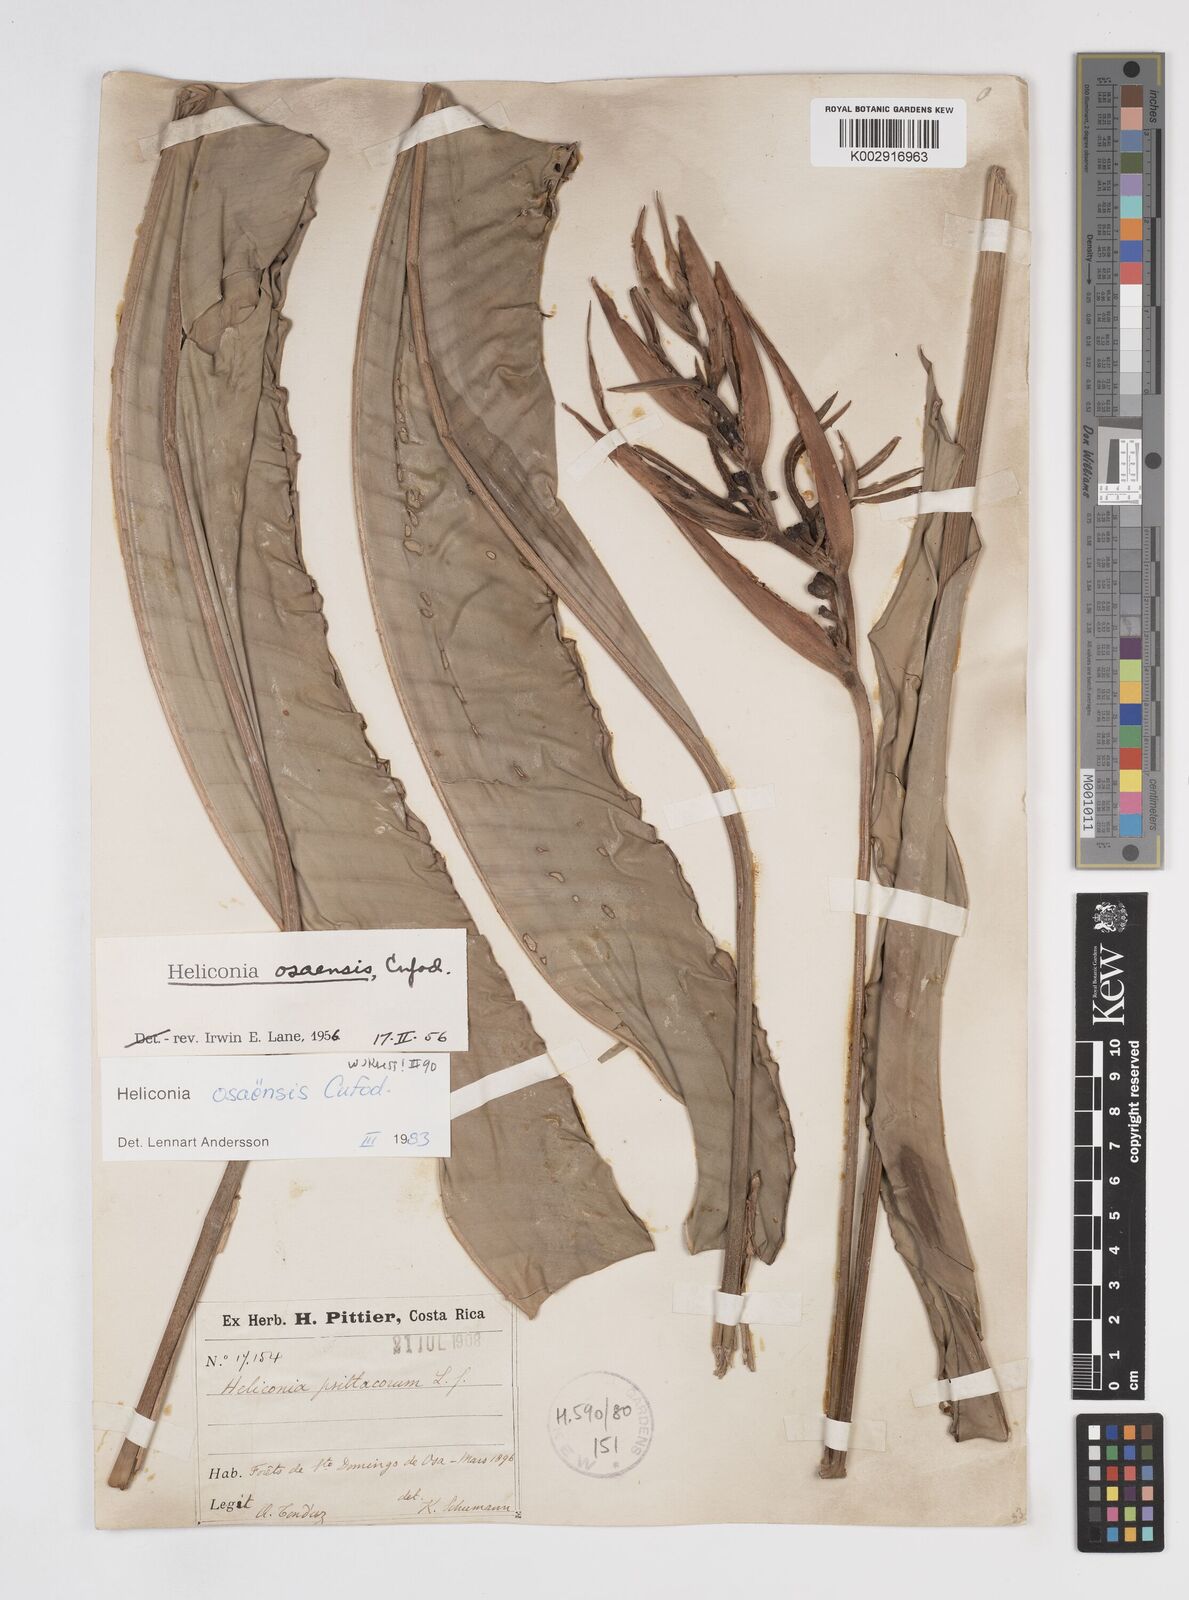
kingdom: Plantae
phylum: Tracheophyta
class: Liliopsida
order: Zingiberales
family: Heliconiaceae
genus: Heliconia
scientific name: Heliconia osaensis
